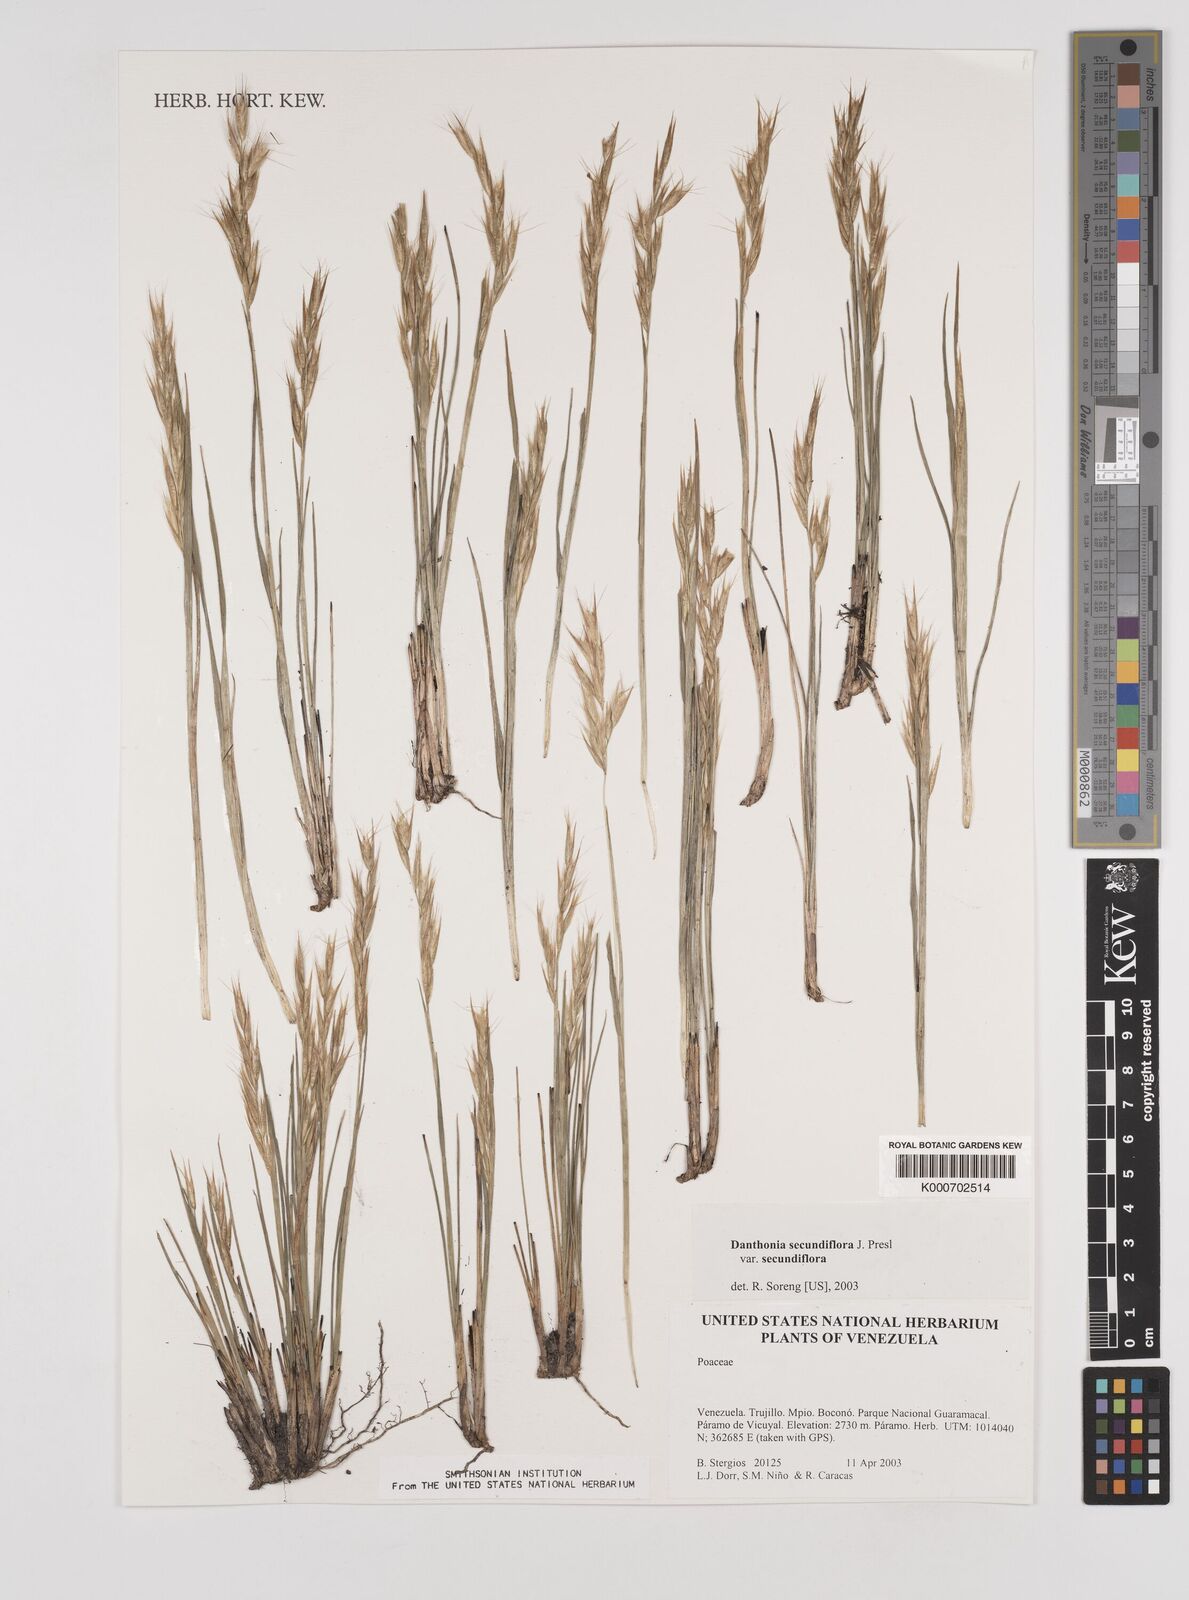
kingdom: Plantae
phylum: Tracheophyta
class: Liliopsida
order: Poales
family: Poaceae
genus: Danthonia
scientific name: Danthonia secundiflora
